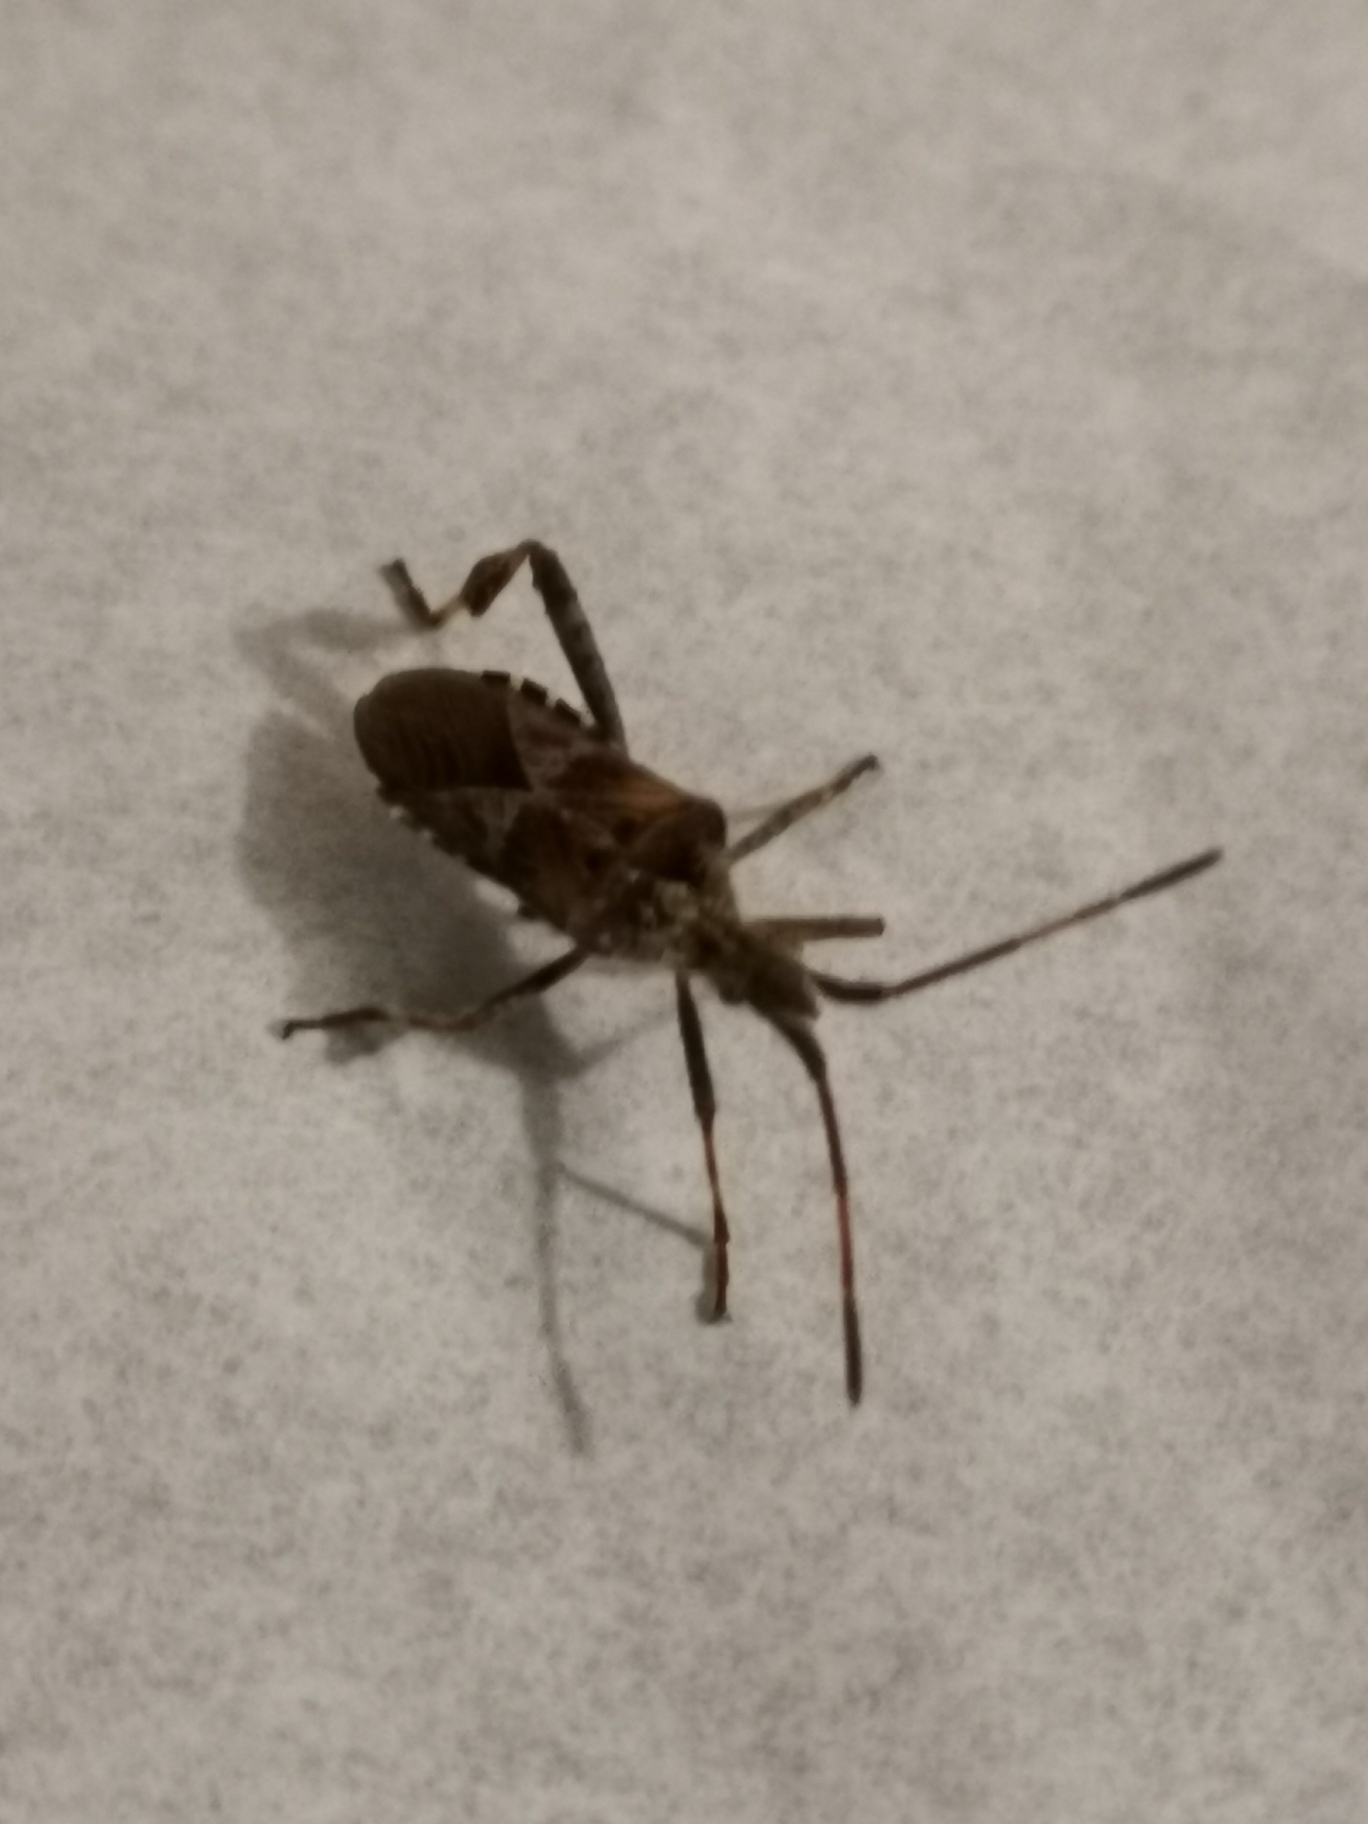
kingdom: Animalia
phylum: Arthropoda
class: Insecta
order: Hemiptera
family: Coreidae
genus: Leptoglossus
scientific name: Leptoglossus occidentalis
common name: Amerikansk fyrretæge
